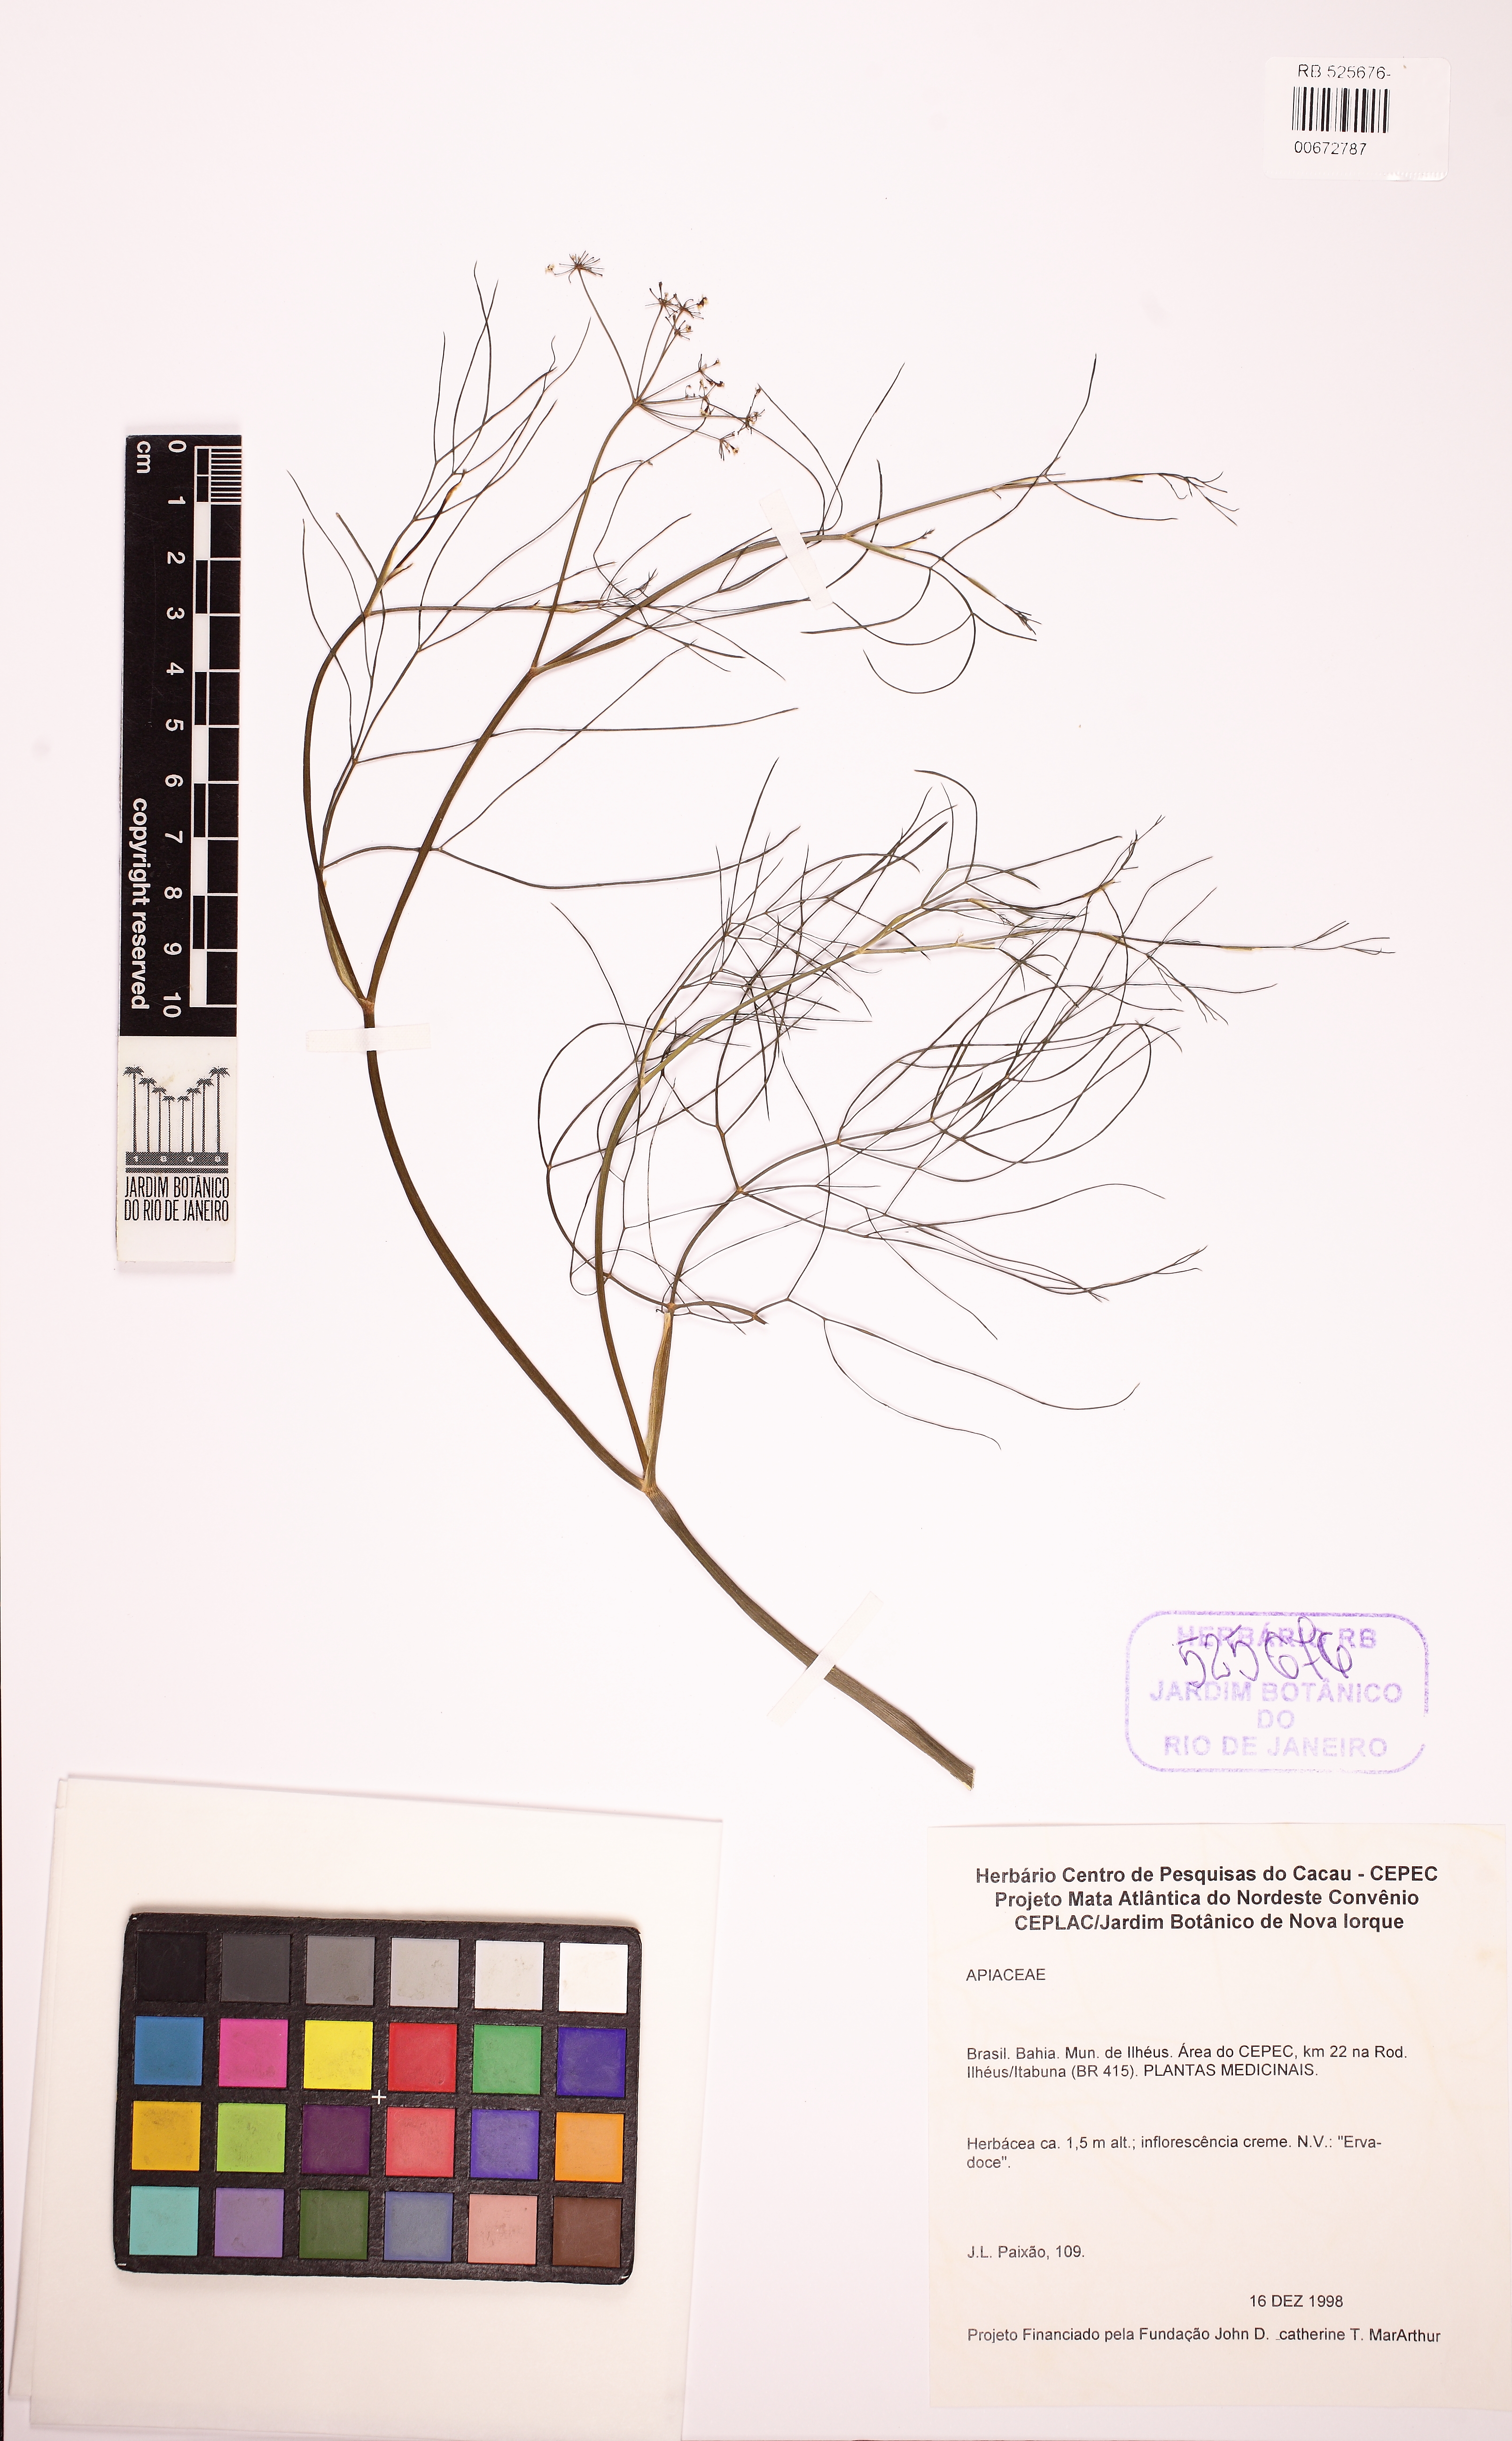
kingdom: Plantae
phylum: Tracheophyta
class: Magnoliopsida
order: Apiales
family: Apiaceae
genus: Foeniculum
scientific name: Foeniculum vulgare
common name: Fennel
